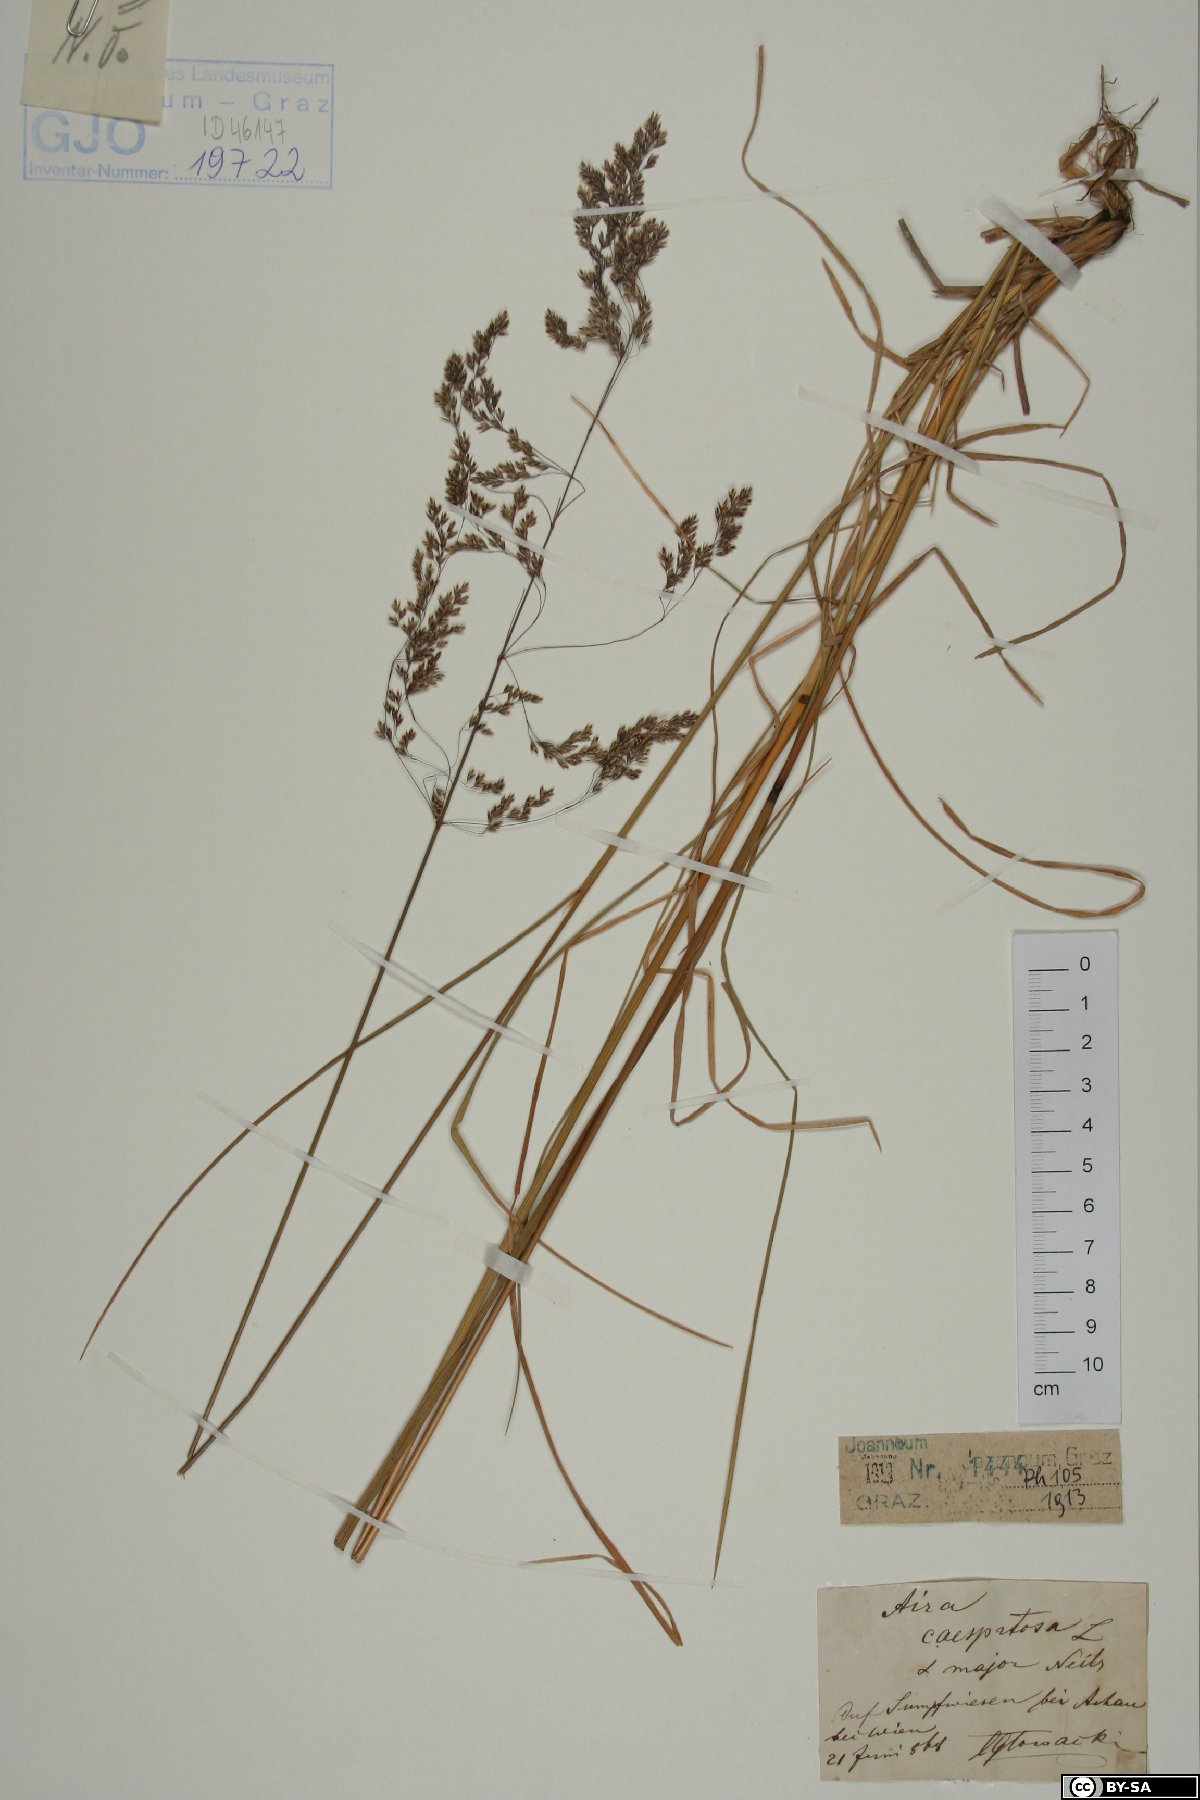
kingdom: Plantae
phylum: Tracheophyta
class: Liliopsida
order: Poales
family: Poaceae
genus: Deschampsia
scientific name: Deschampsia cespitosa
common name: Tufted hair-grass
